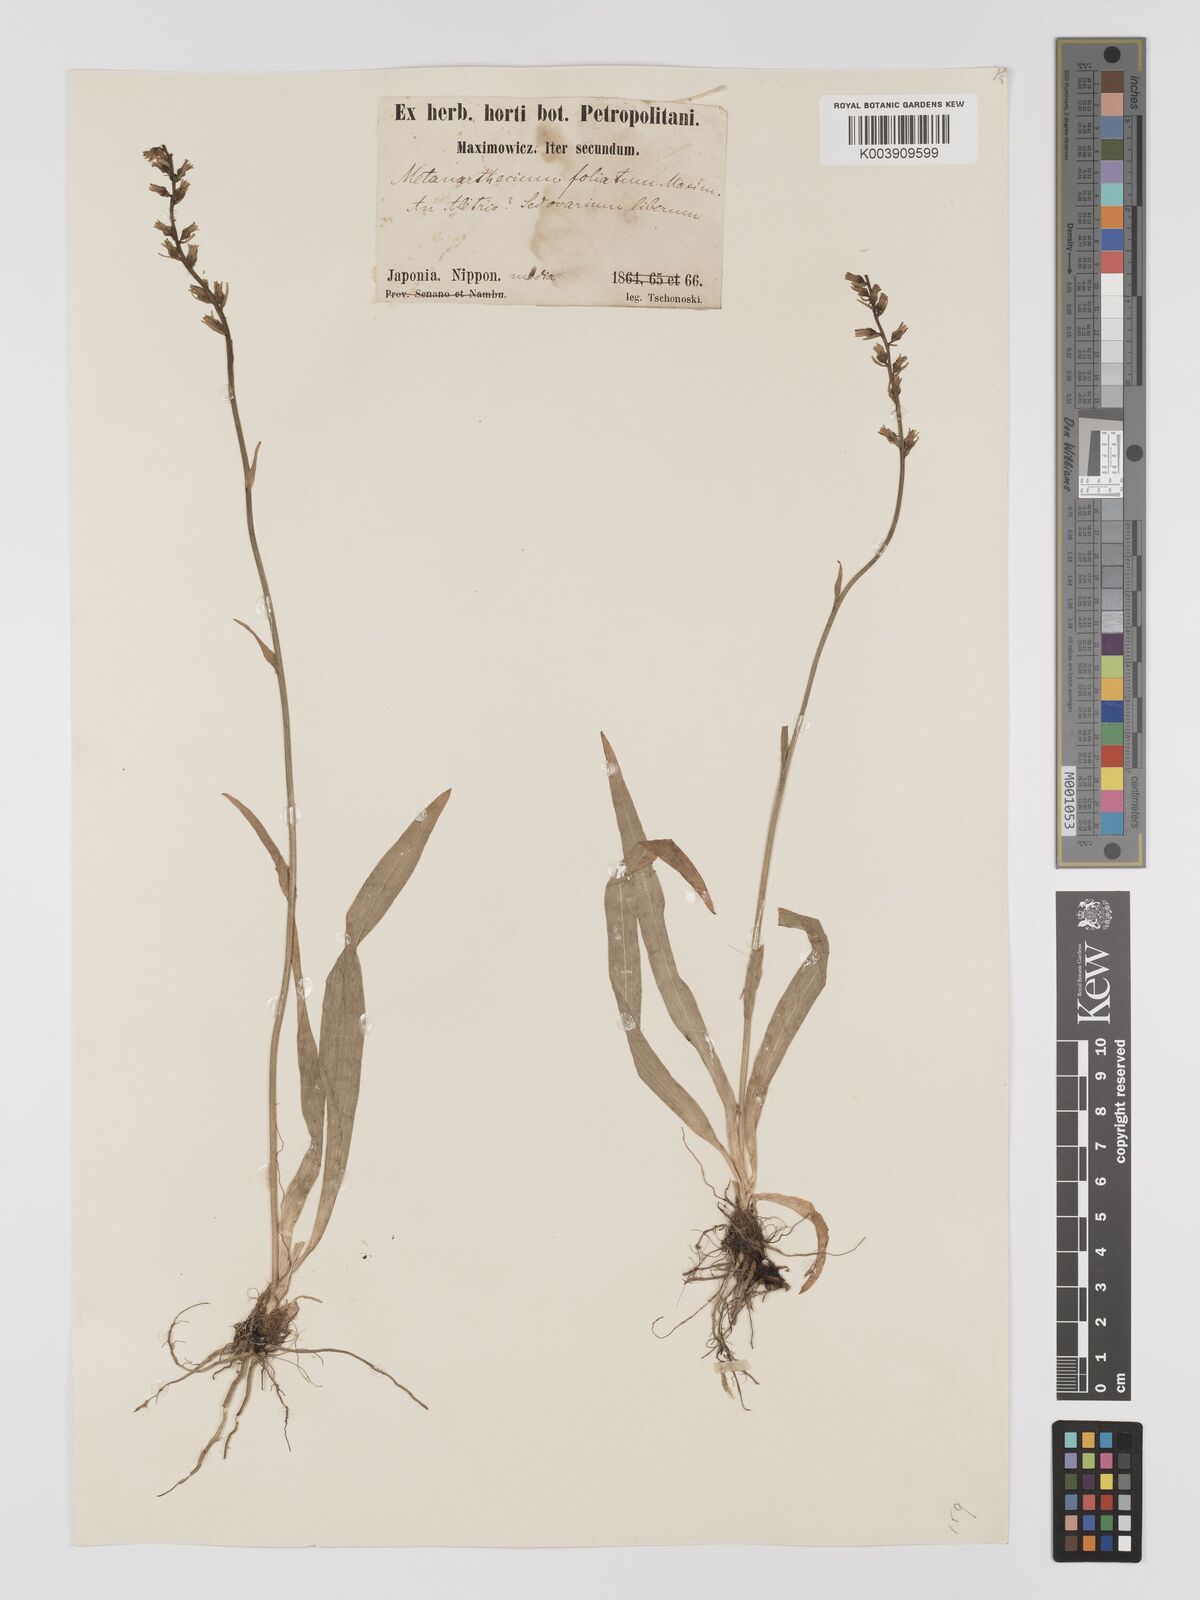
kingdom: Plantae
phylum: Tracheophyta
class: Liliopsida
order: Dioscoreales
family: Nartheciaceae
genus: Aletris
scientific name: Aletris foliata
